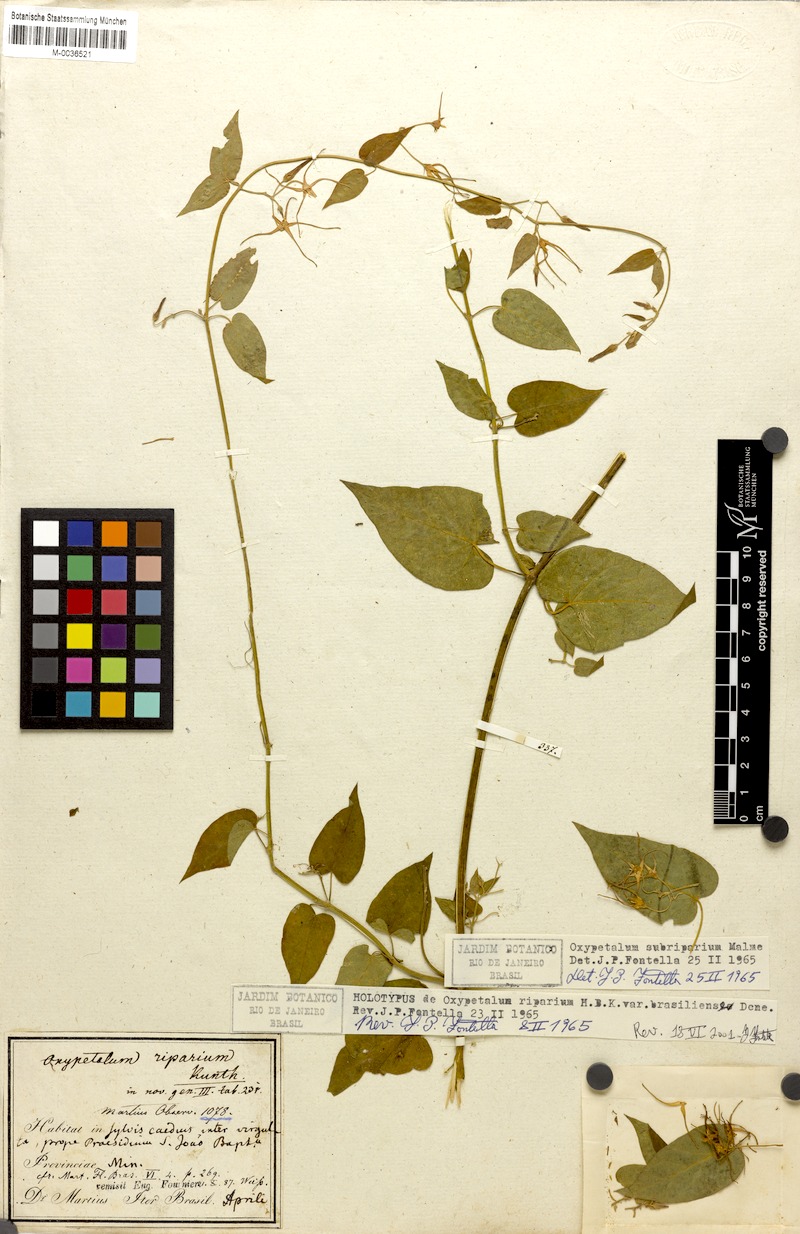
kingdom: Plantae
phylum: Tracheophyta
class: Magnoliopsida
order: Gentianales
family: Apocynaceae
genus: Oxypetalum
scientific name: Oxypetalum cordifolium
